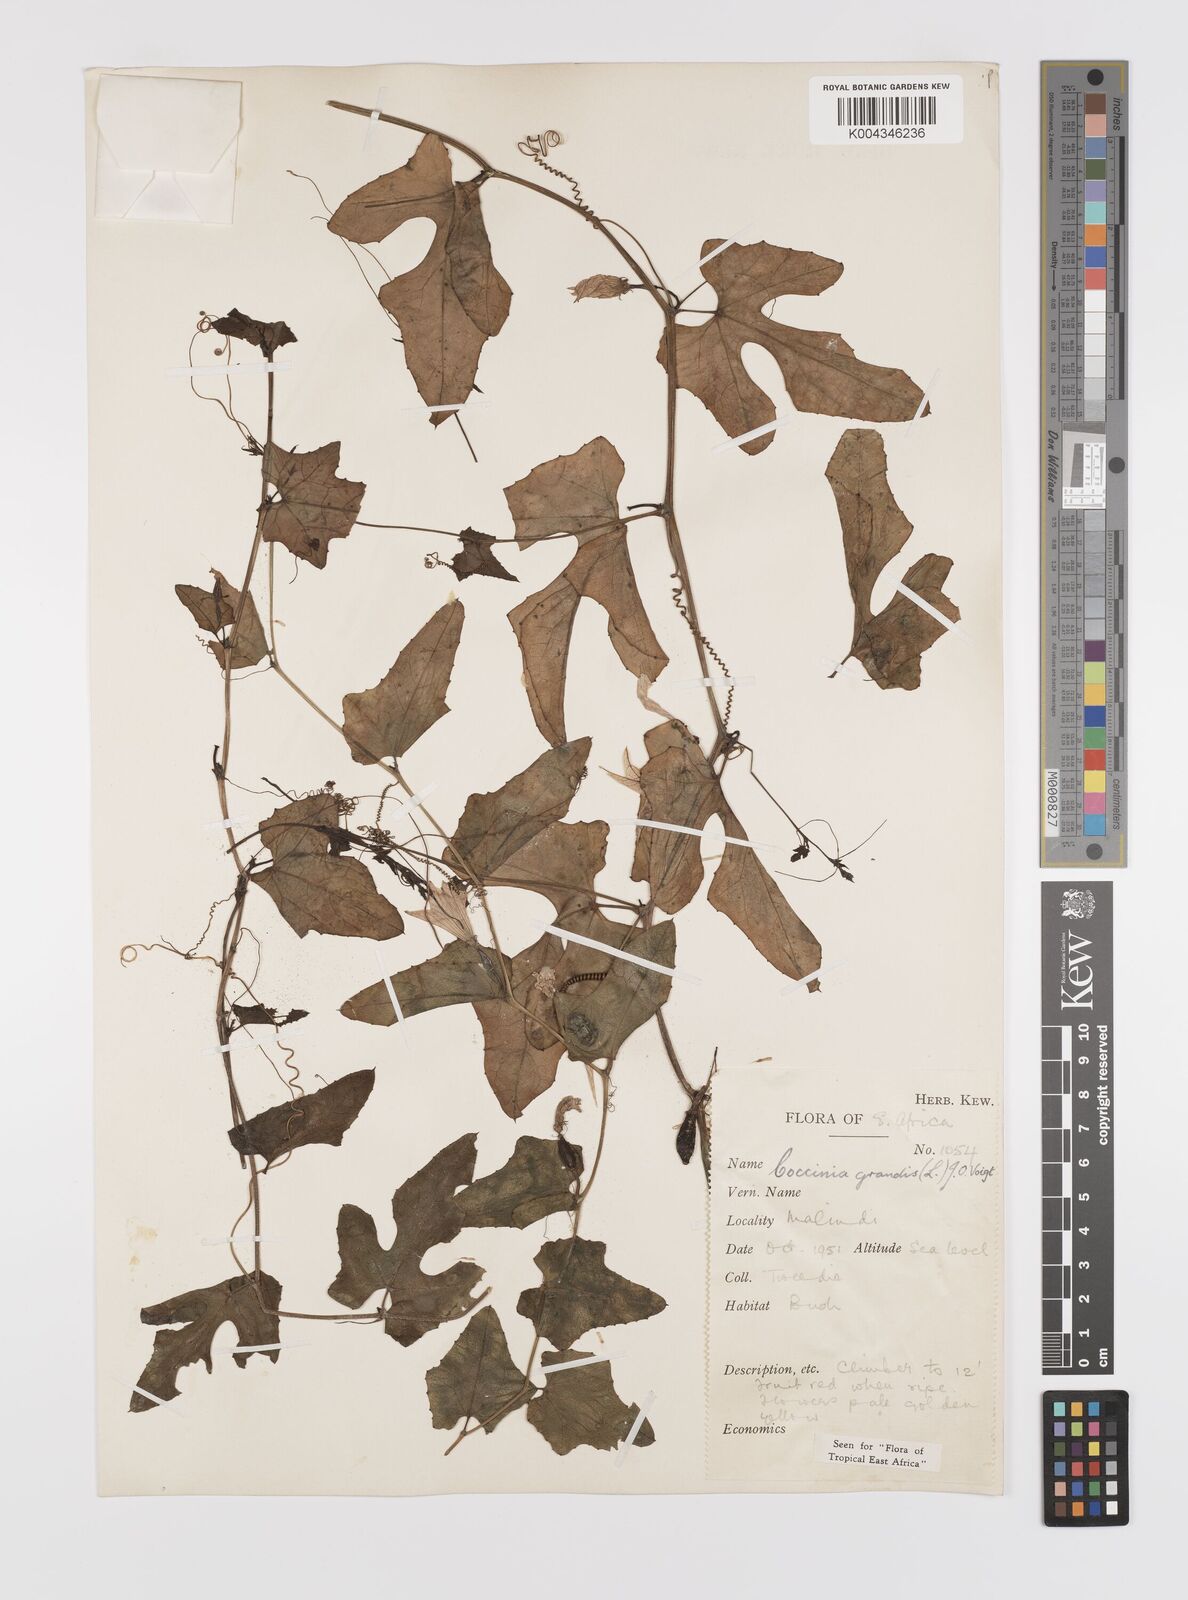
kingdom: Plantae
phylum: Tracheophyta
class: Magnoliopsida
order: Cucurbitales
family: Cucurbitaceae
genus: Coccinia
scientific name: Coccinia grandis
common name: Ivy gourd
